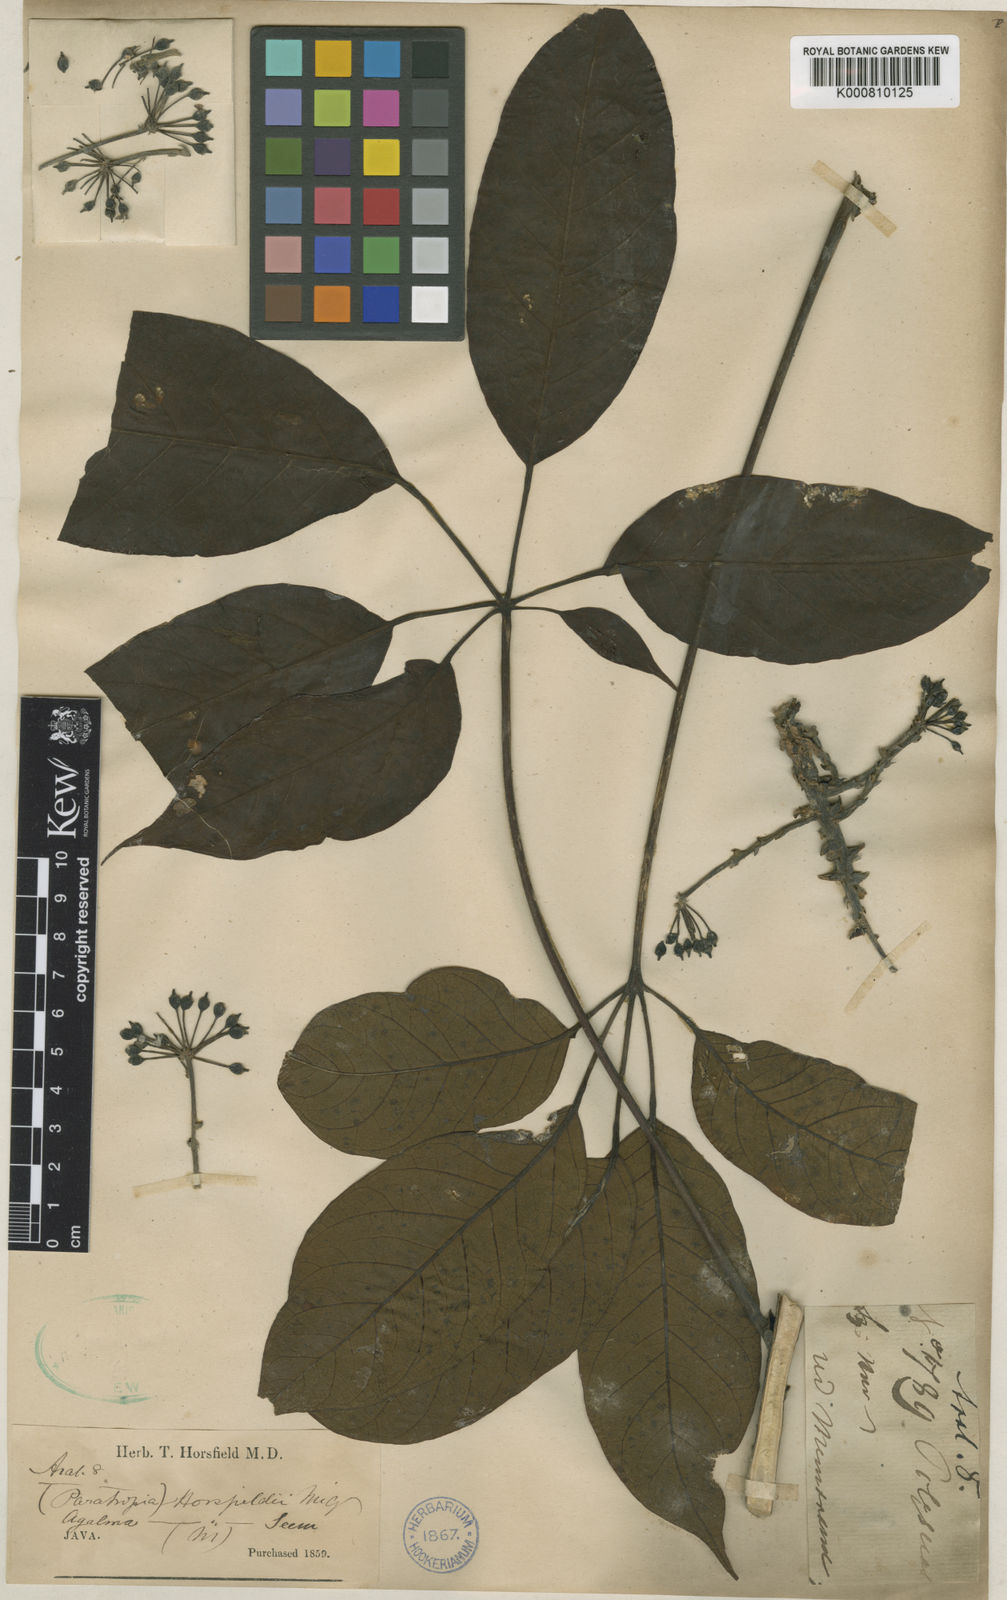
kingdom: Plantae
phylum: Tracheophyta
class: Magnoliopsida
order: Apiales
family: Araliaceae
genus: Heptapleurum
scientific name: Heptapleurum aromaticum
